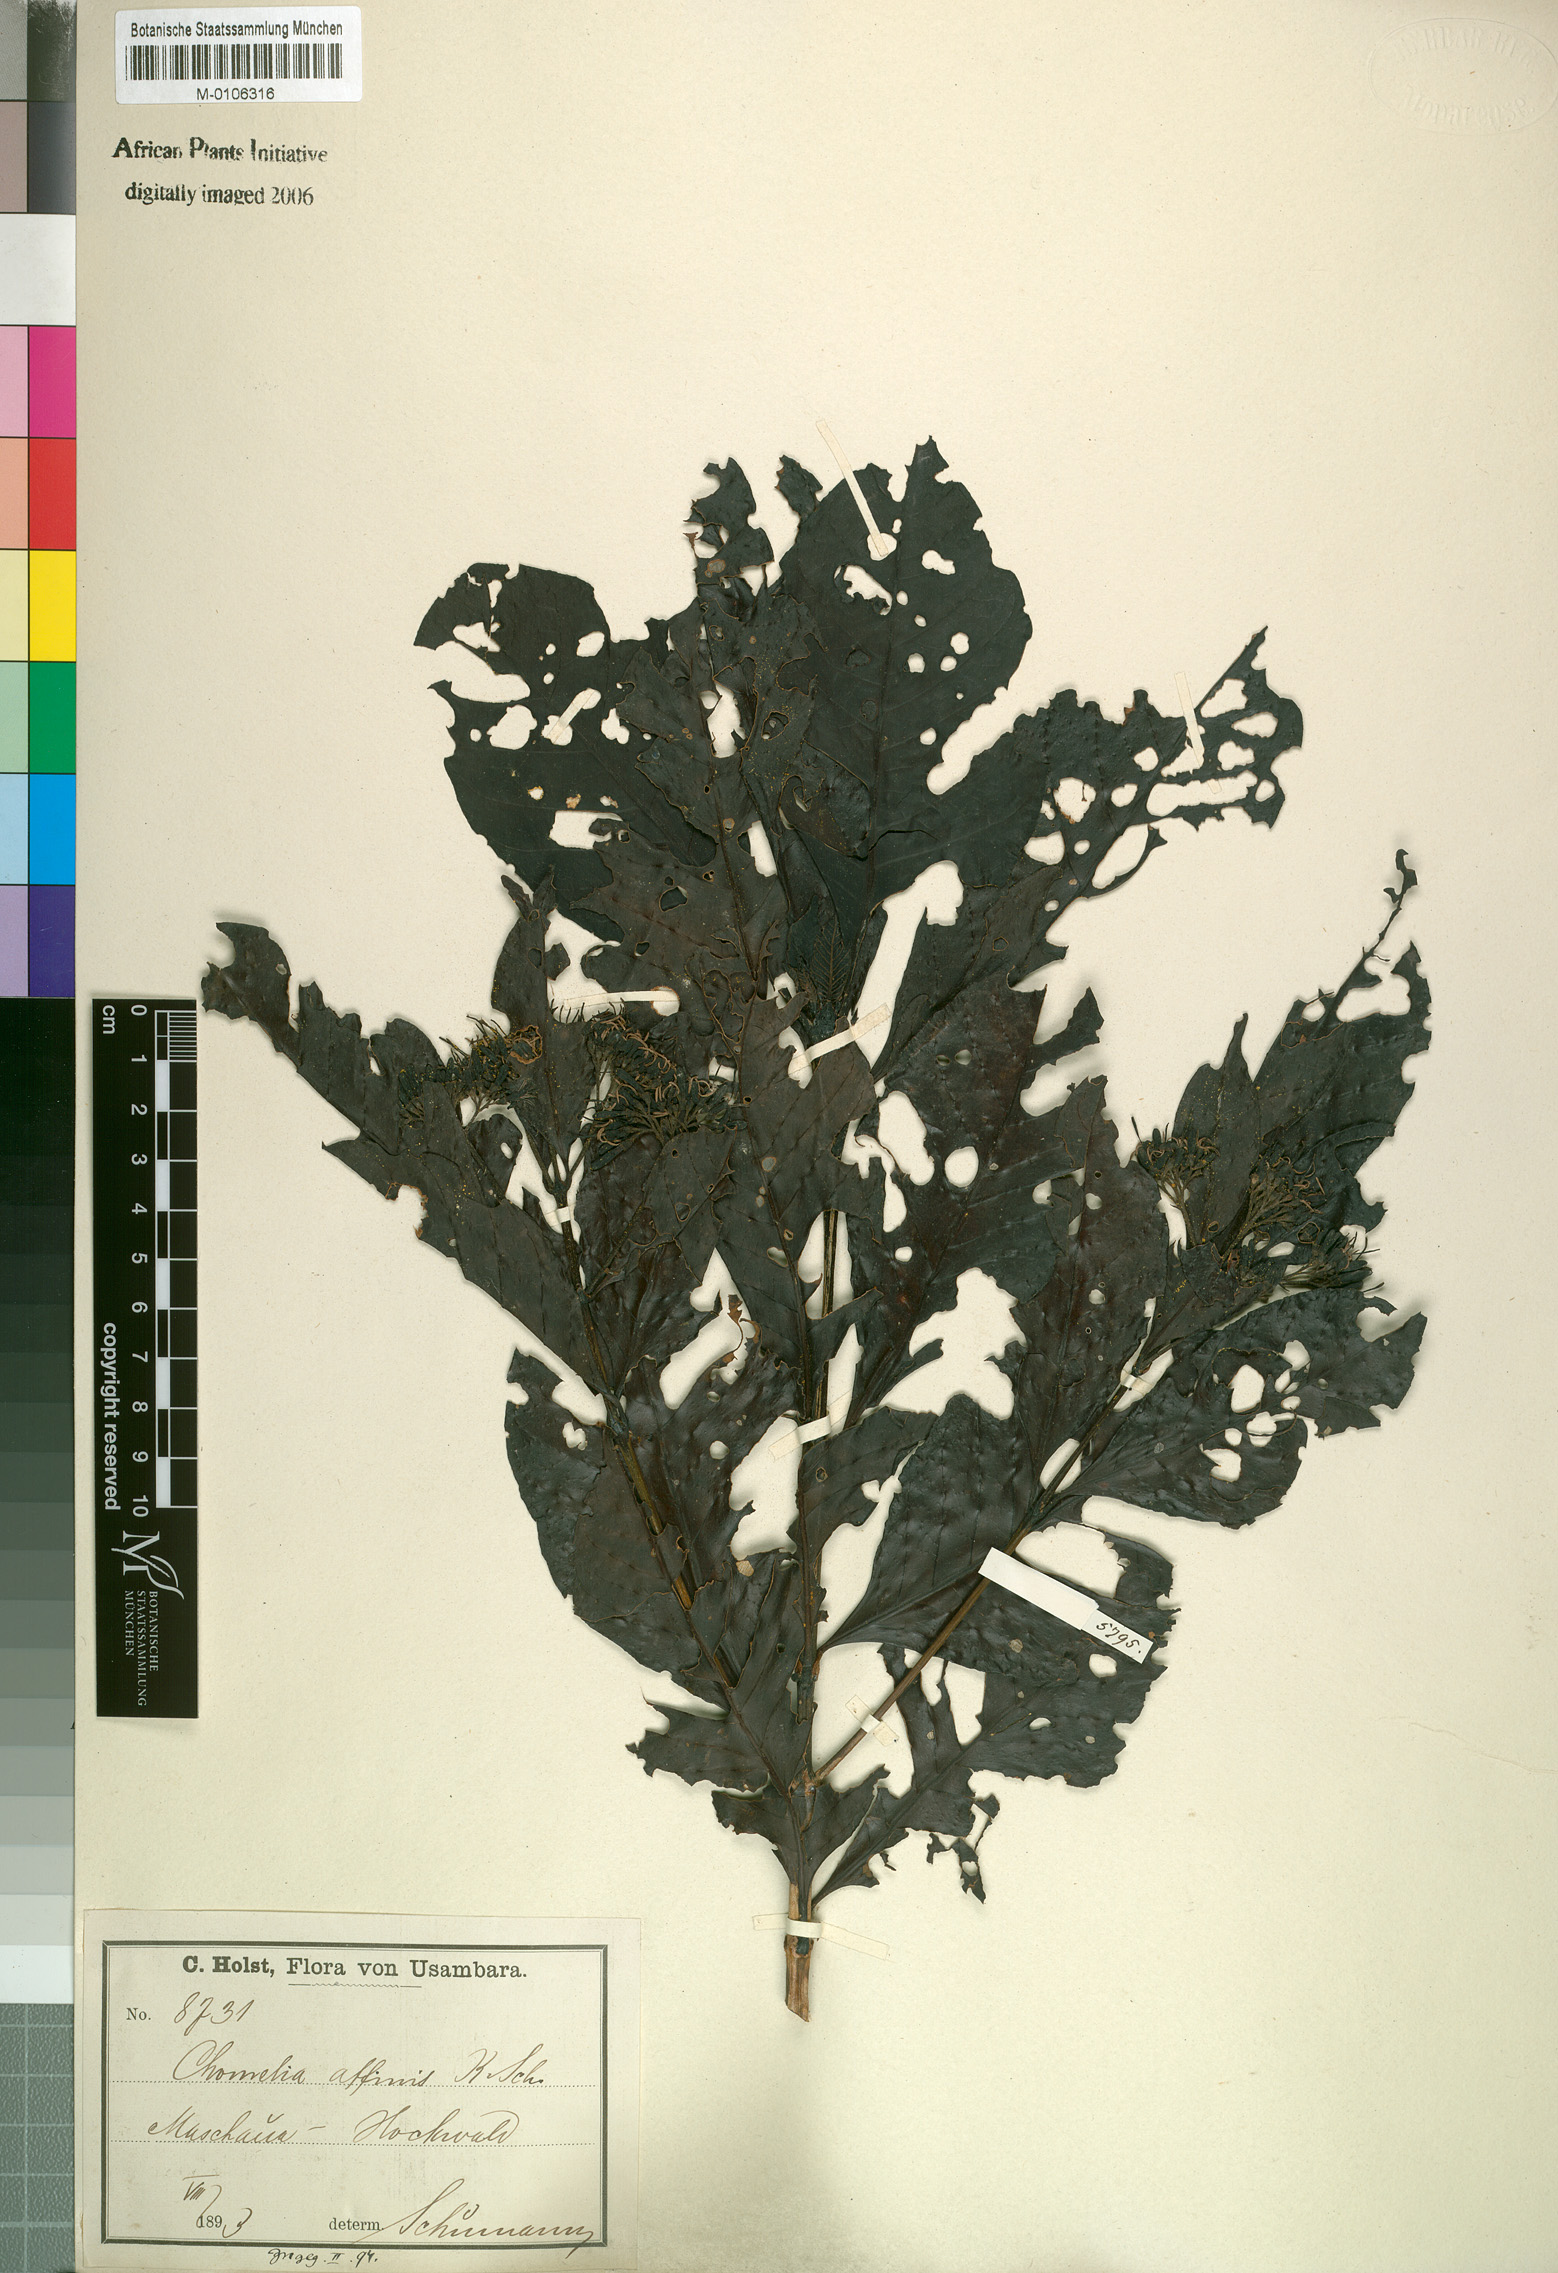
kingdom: Plantae
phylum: Tracheophyta
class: Magnoliopsida
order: Gentianales
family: Rubiaceae
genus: Tarenna
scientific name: Tarenna pavettoides
